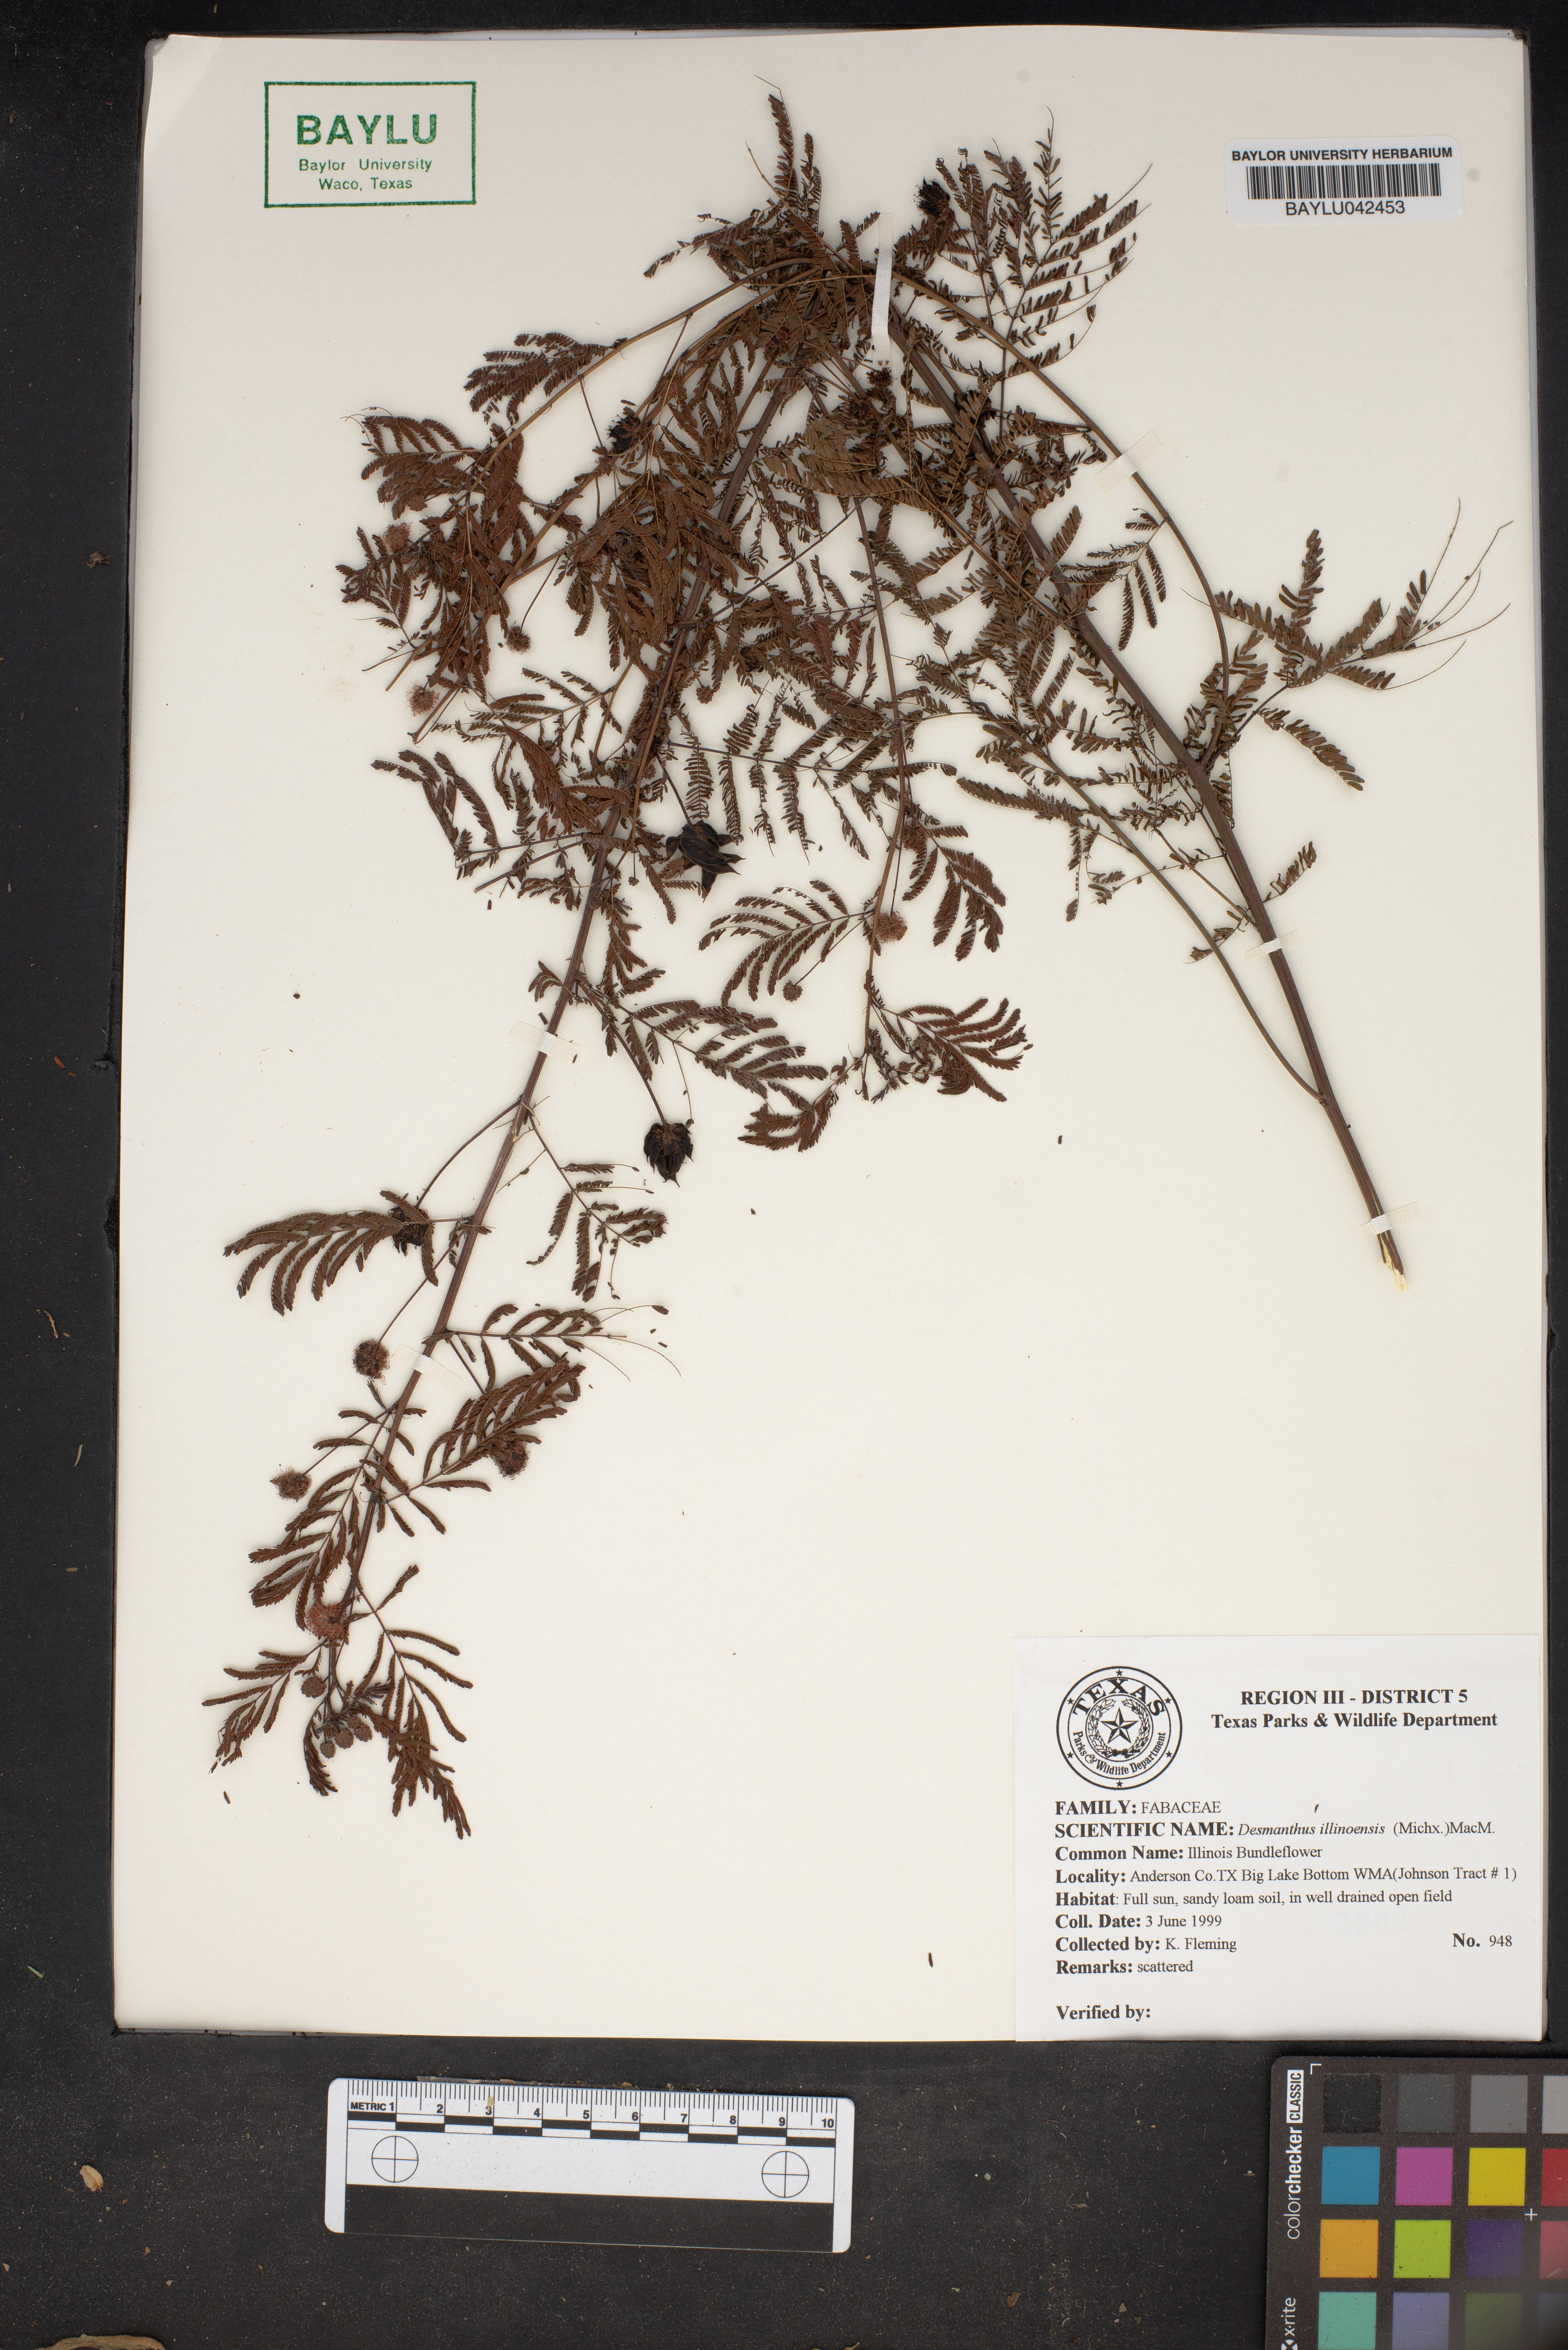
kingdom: Plantae
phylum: Tracheophyta
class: Magnoliopsida
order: Fabales
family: Fabaceae
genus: Desmanthus
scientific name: Desmanthus illinoensis
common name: Illinois bundle-flower
